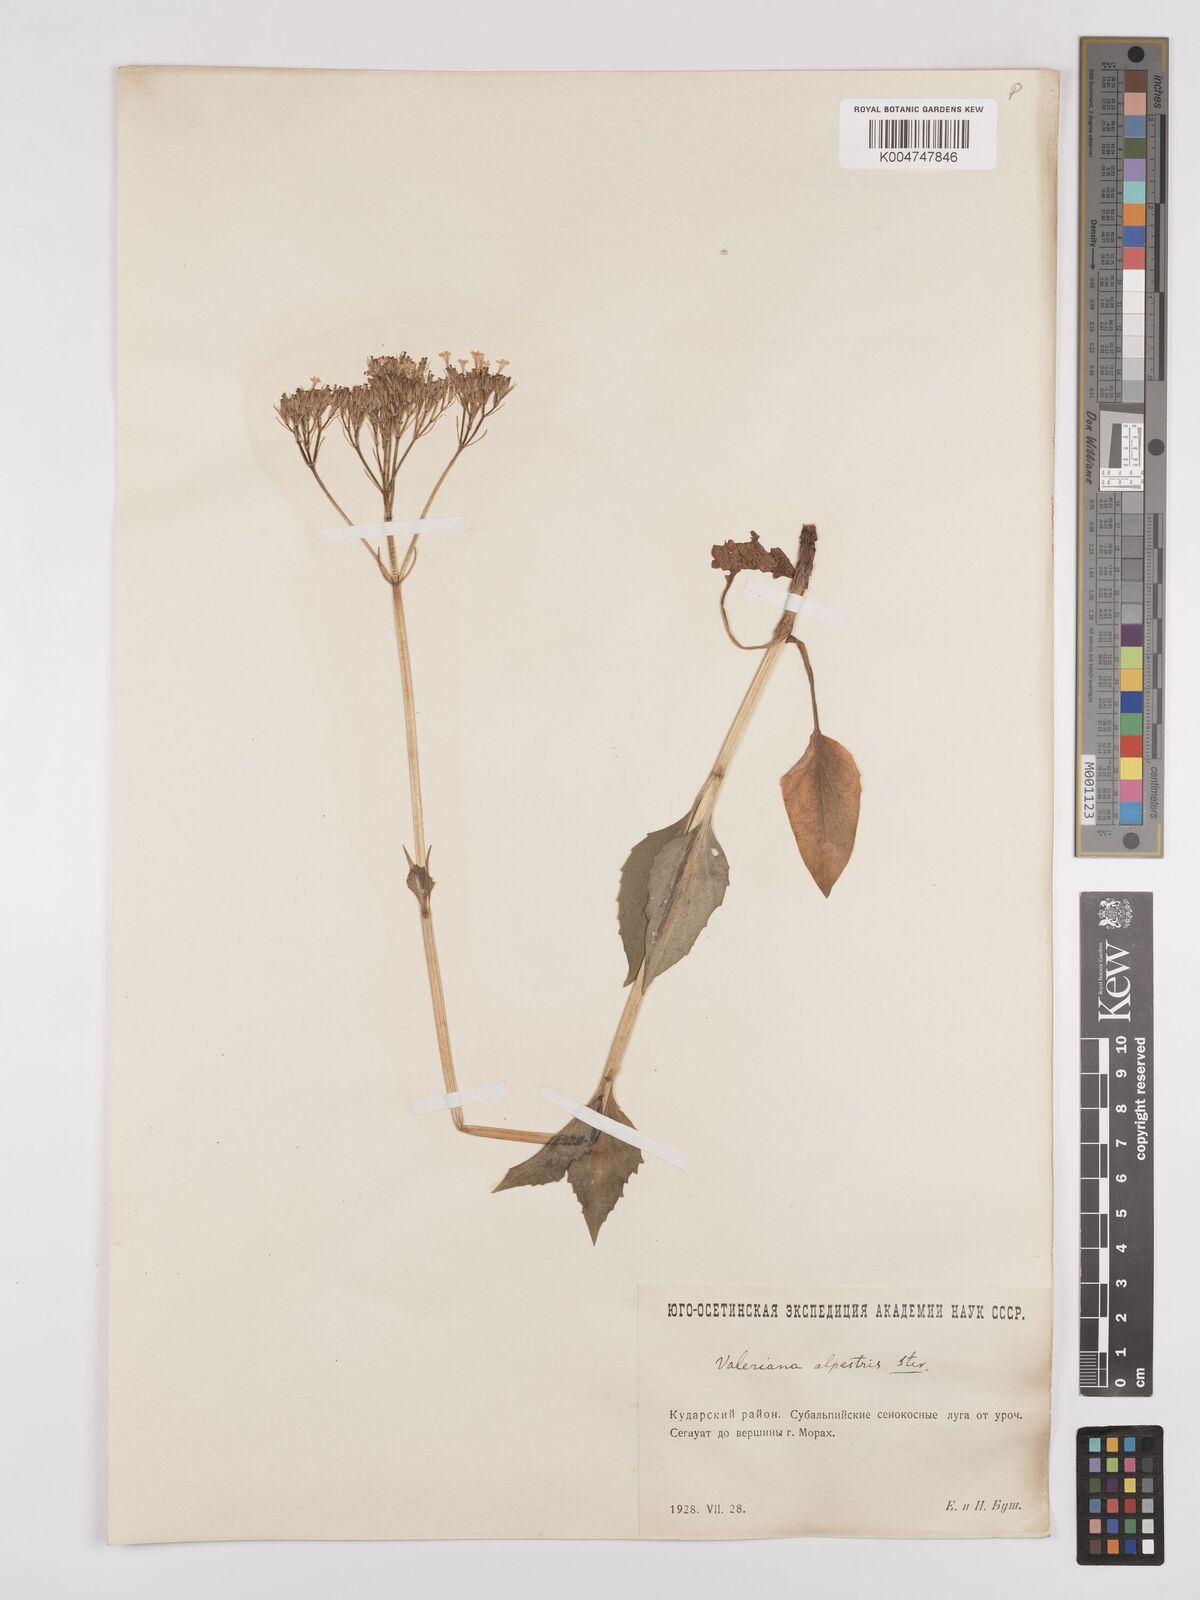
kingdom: Plantae
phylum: Tracheophyta
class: Magnoliopsida
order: Dipsacales
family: Caprifoliaceae
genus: Valeriana
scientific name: Valeriana alpestris
